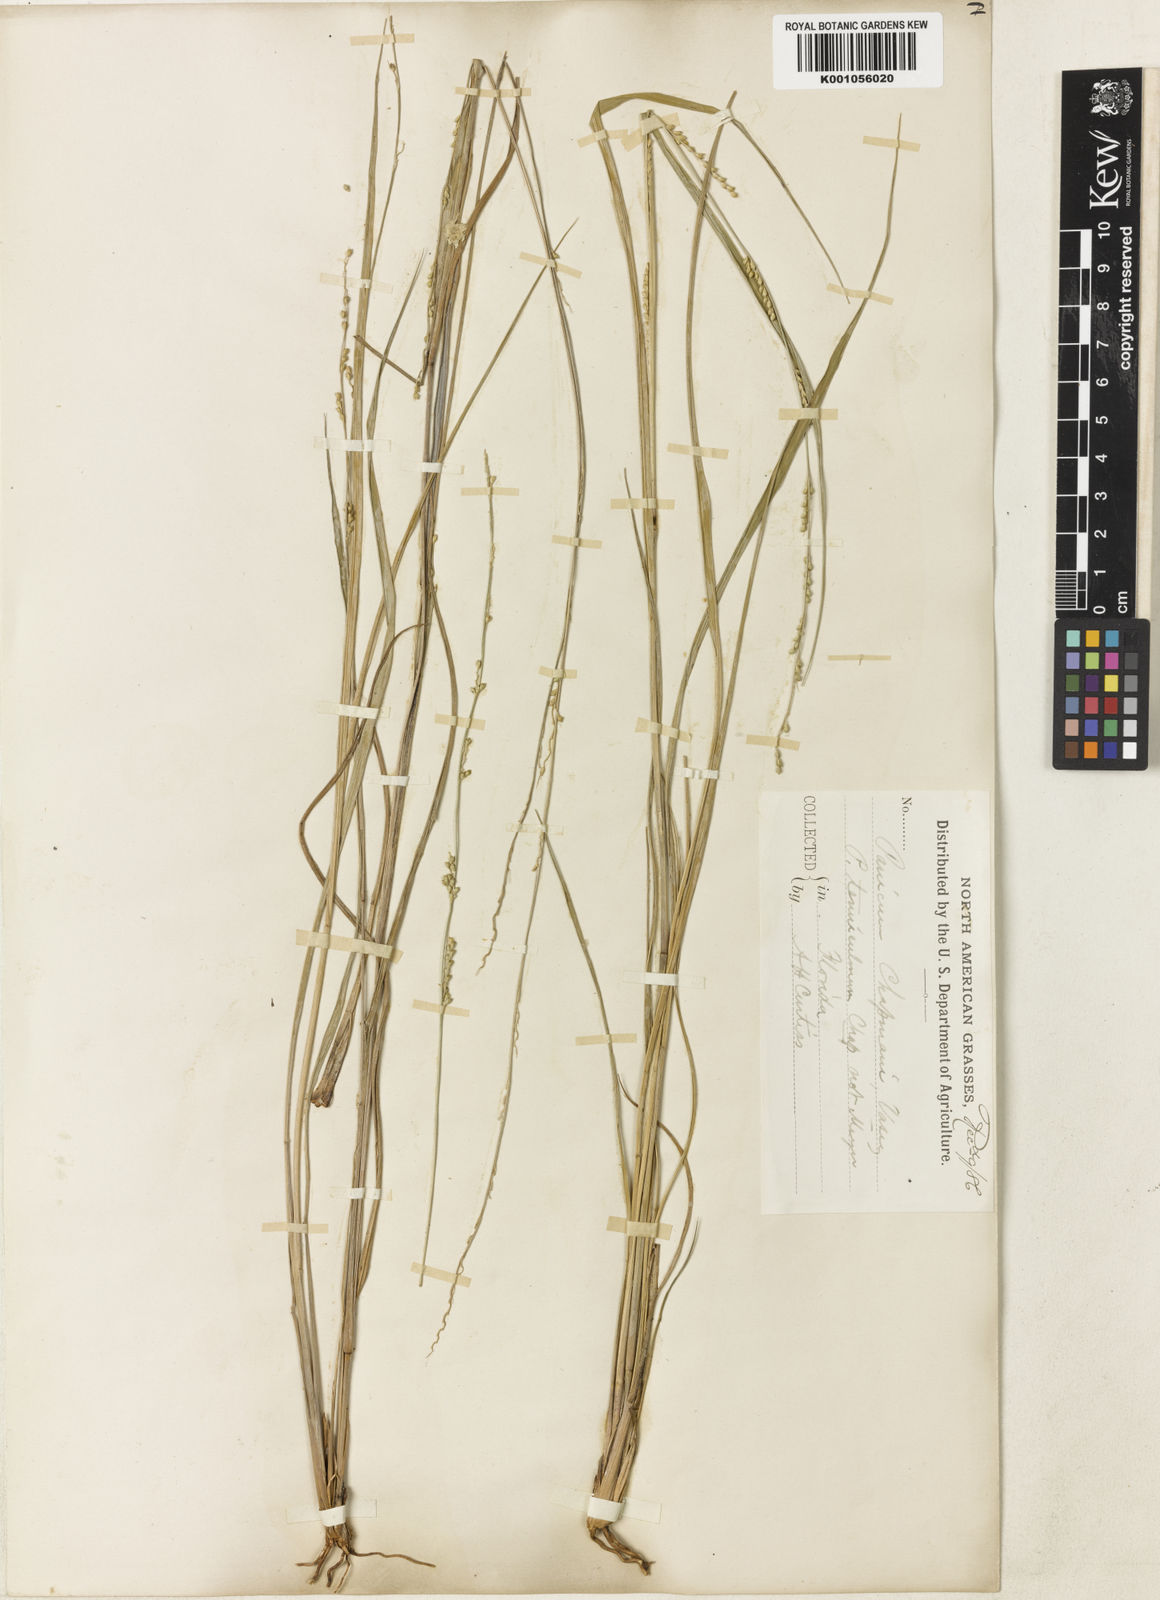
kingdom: Plantae
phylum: Tracheophyta
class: Liliopsida
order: Poales
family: Poaceae
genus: Setaria
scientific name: Setaria chapmanii
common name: Chapman's bristle grass
